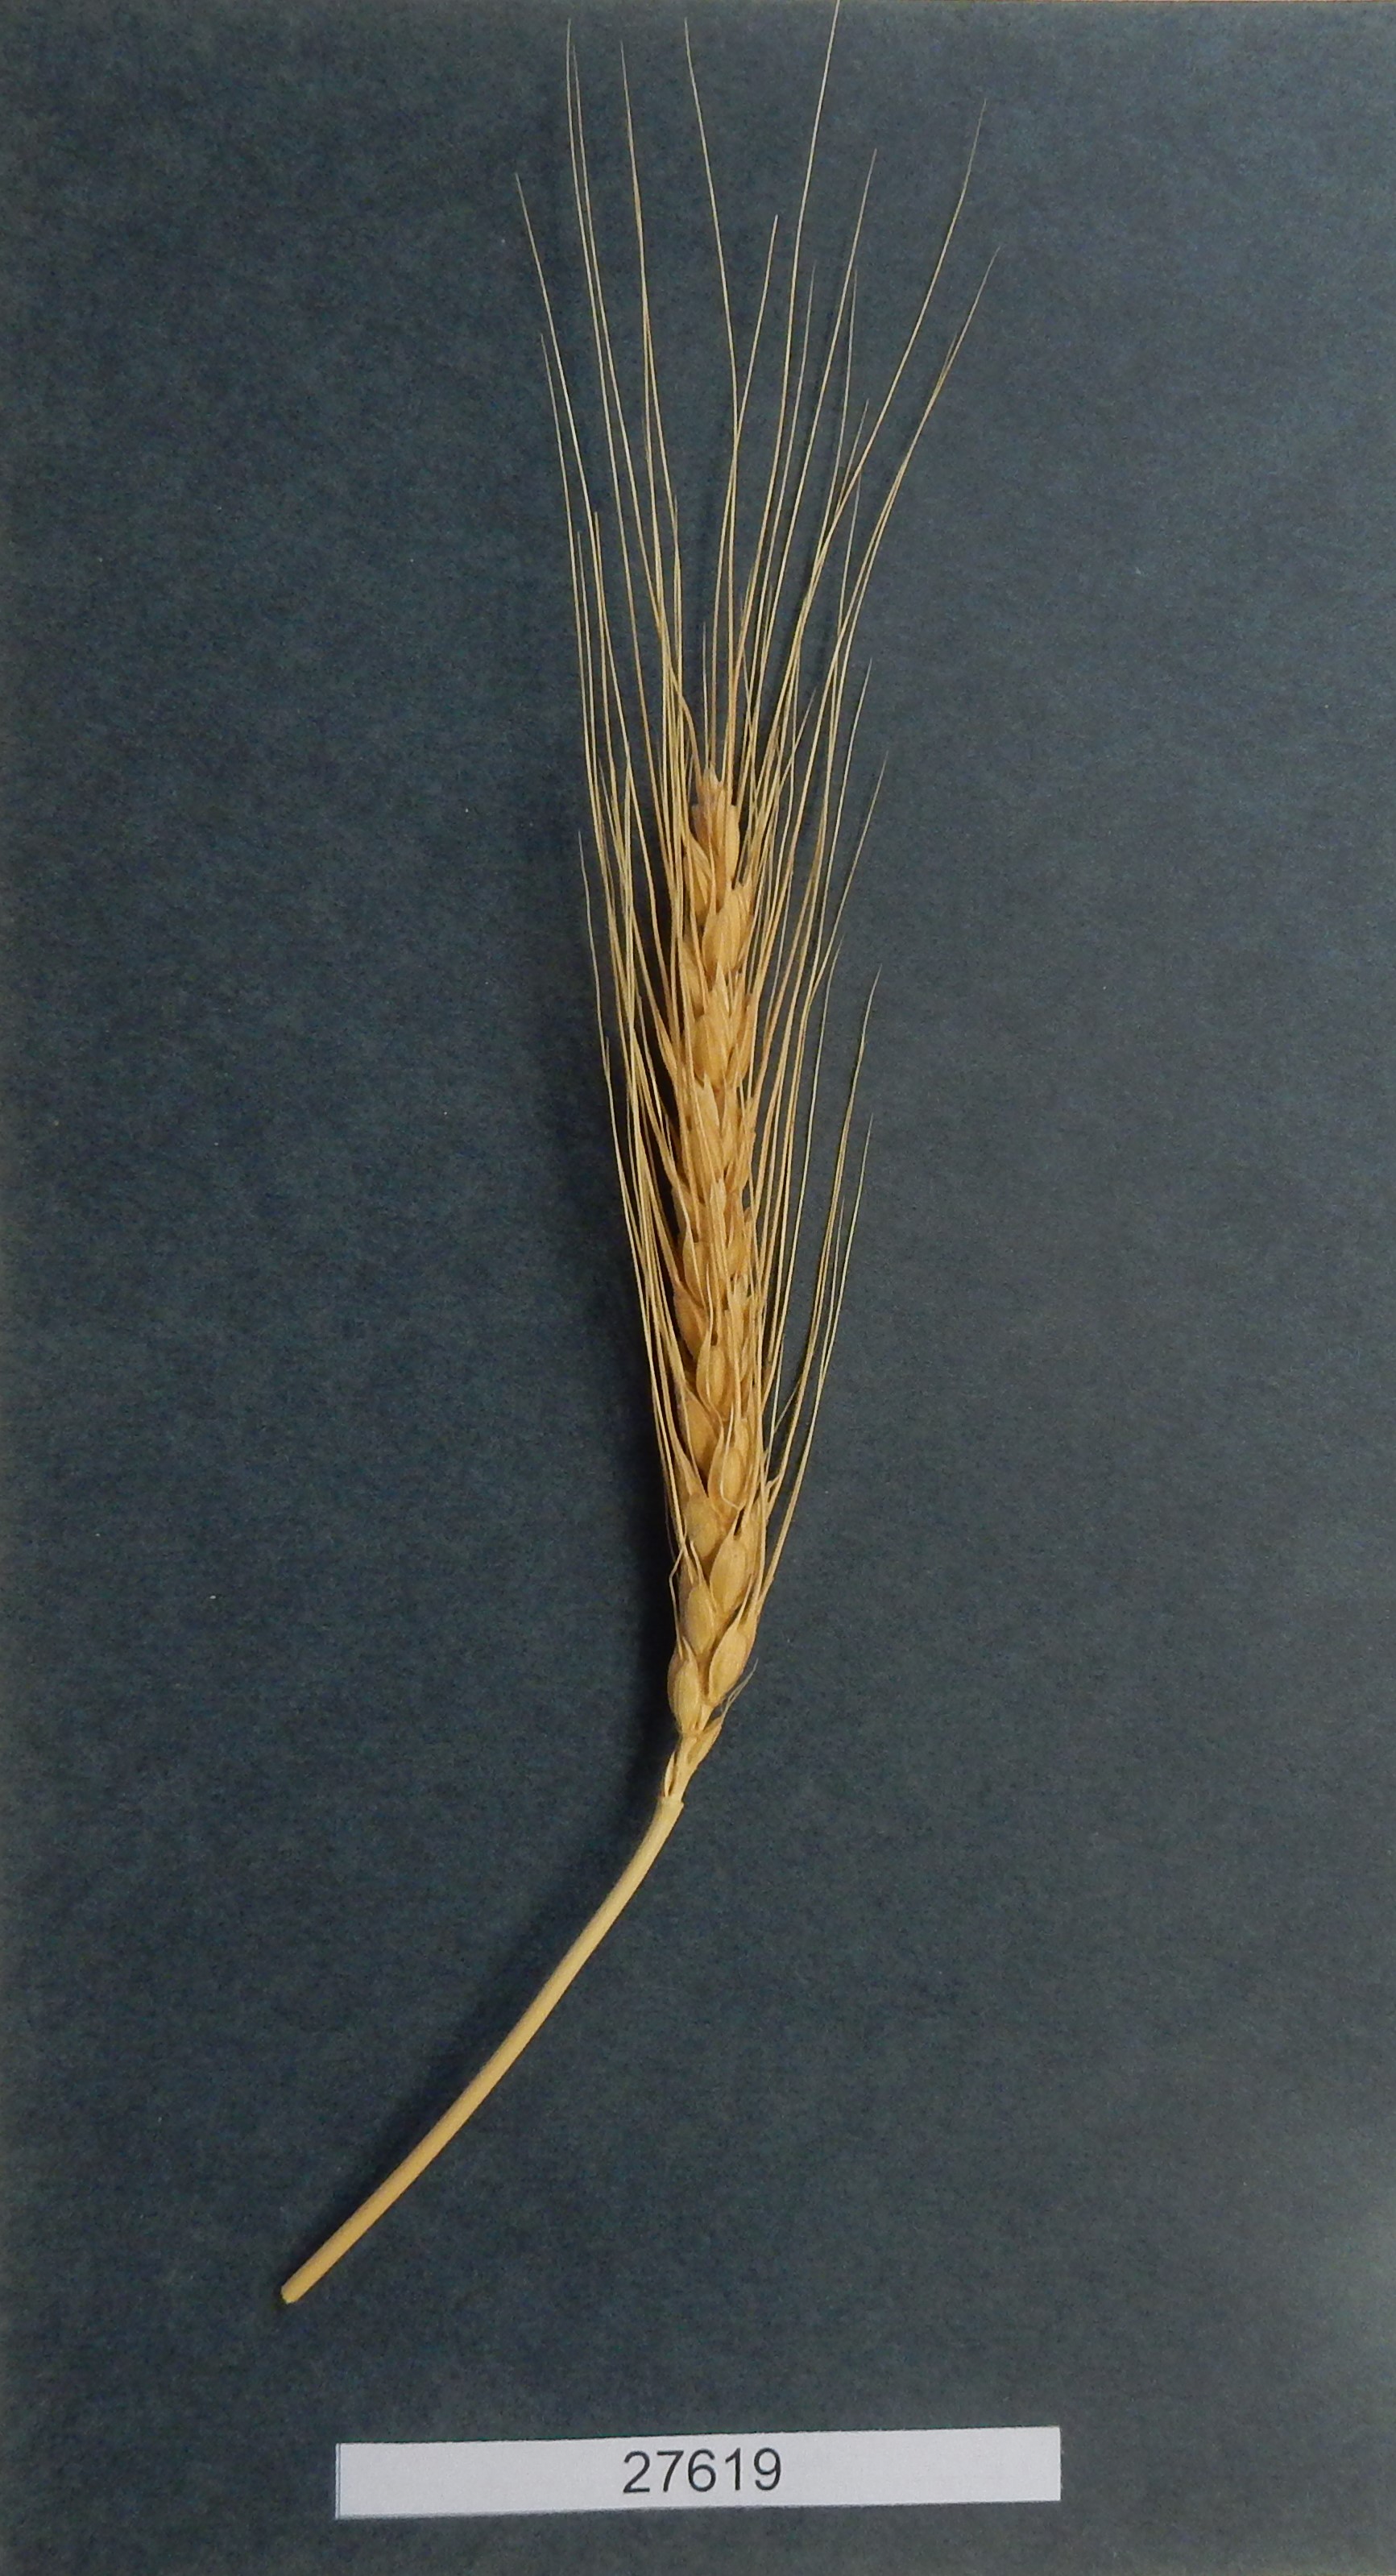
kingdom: Plantae
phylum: Tracheophyta
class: Liliopsida
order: Poales
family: Poaceae
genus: Triticum
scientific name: Triticum aestivum
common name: Common wheat
